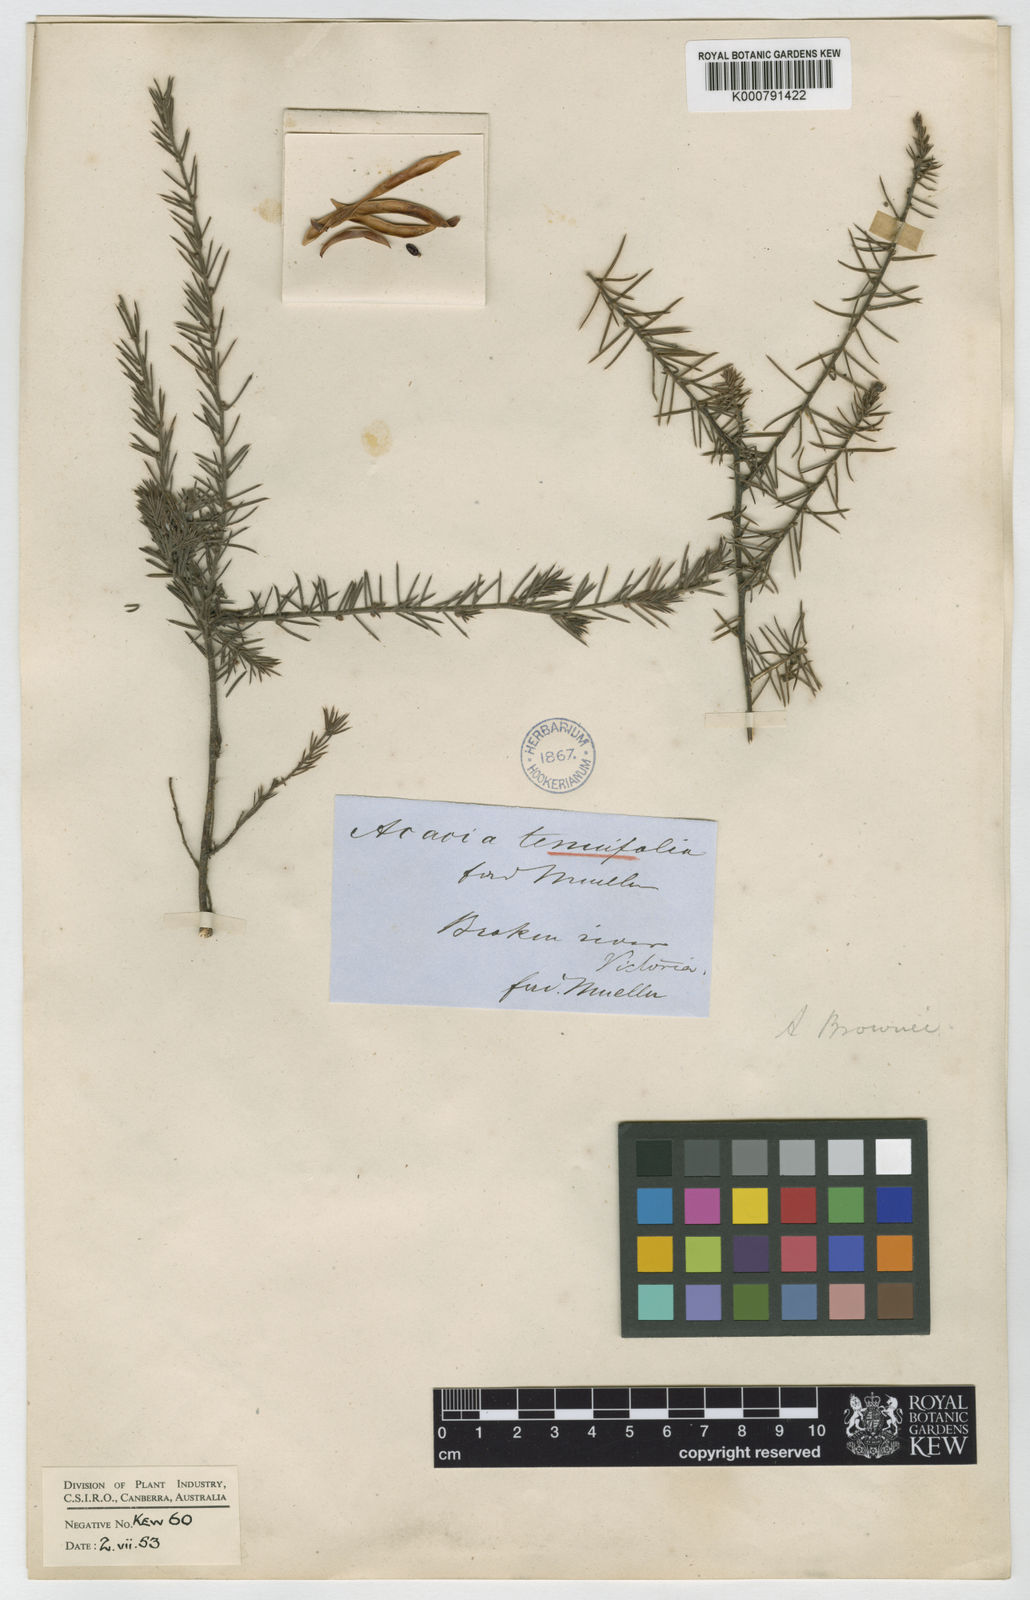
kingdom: Plantae
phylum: Tracheophyta
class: Magnoliopsida
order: Fabales
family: Fabaceae
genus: Acacia
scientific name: Acacia aculeatissima
